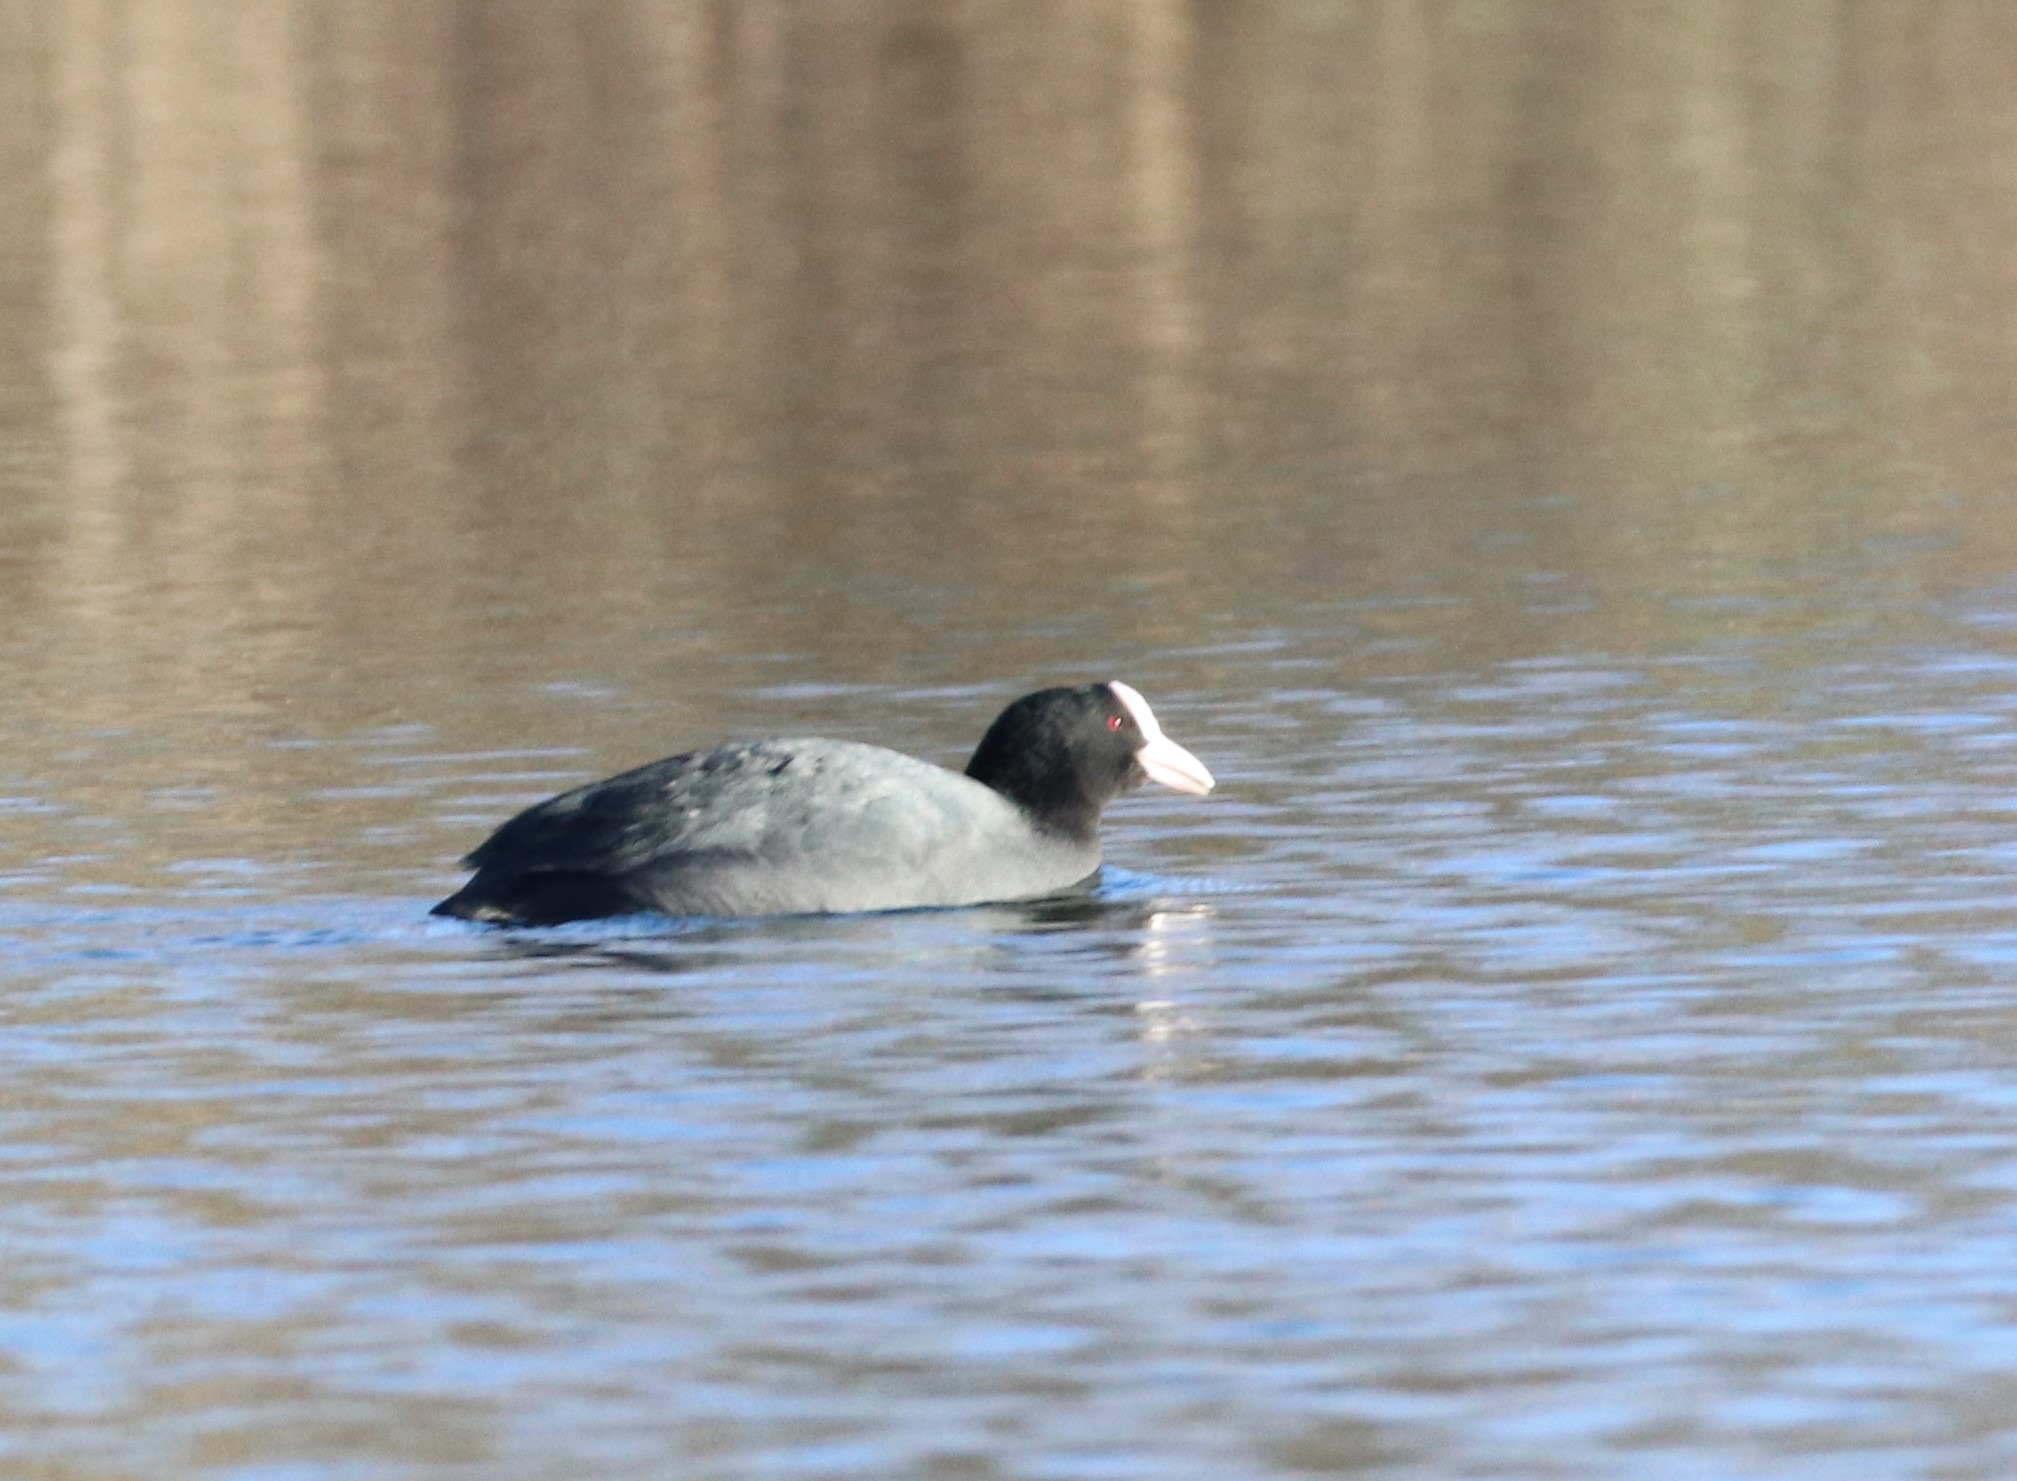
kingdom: Animalia
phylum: Chordata
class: Aves
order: Gruiformes
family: Rallidae
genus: Fulica
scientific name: Fulica atra
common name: Blishøne
